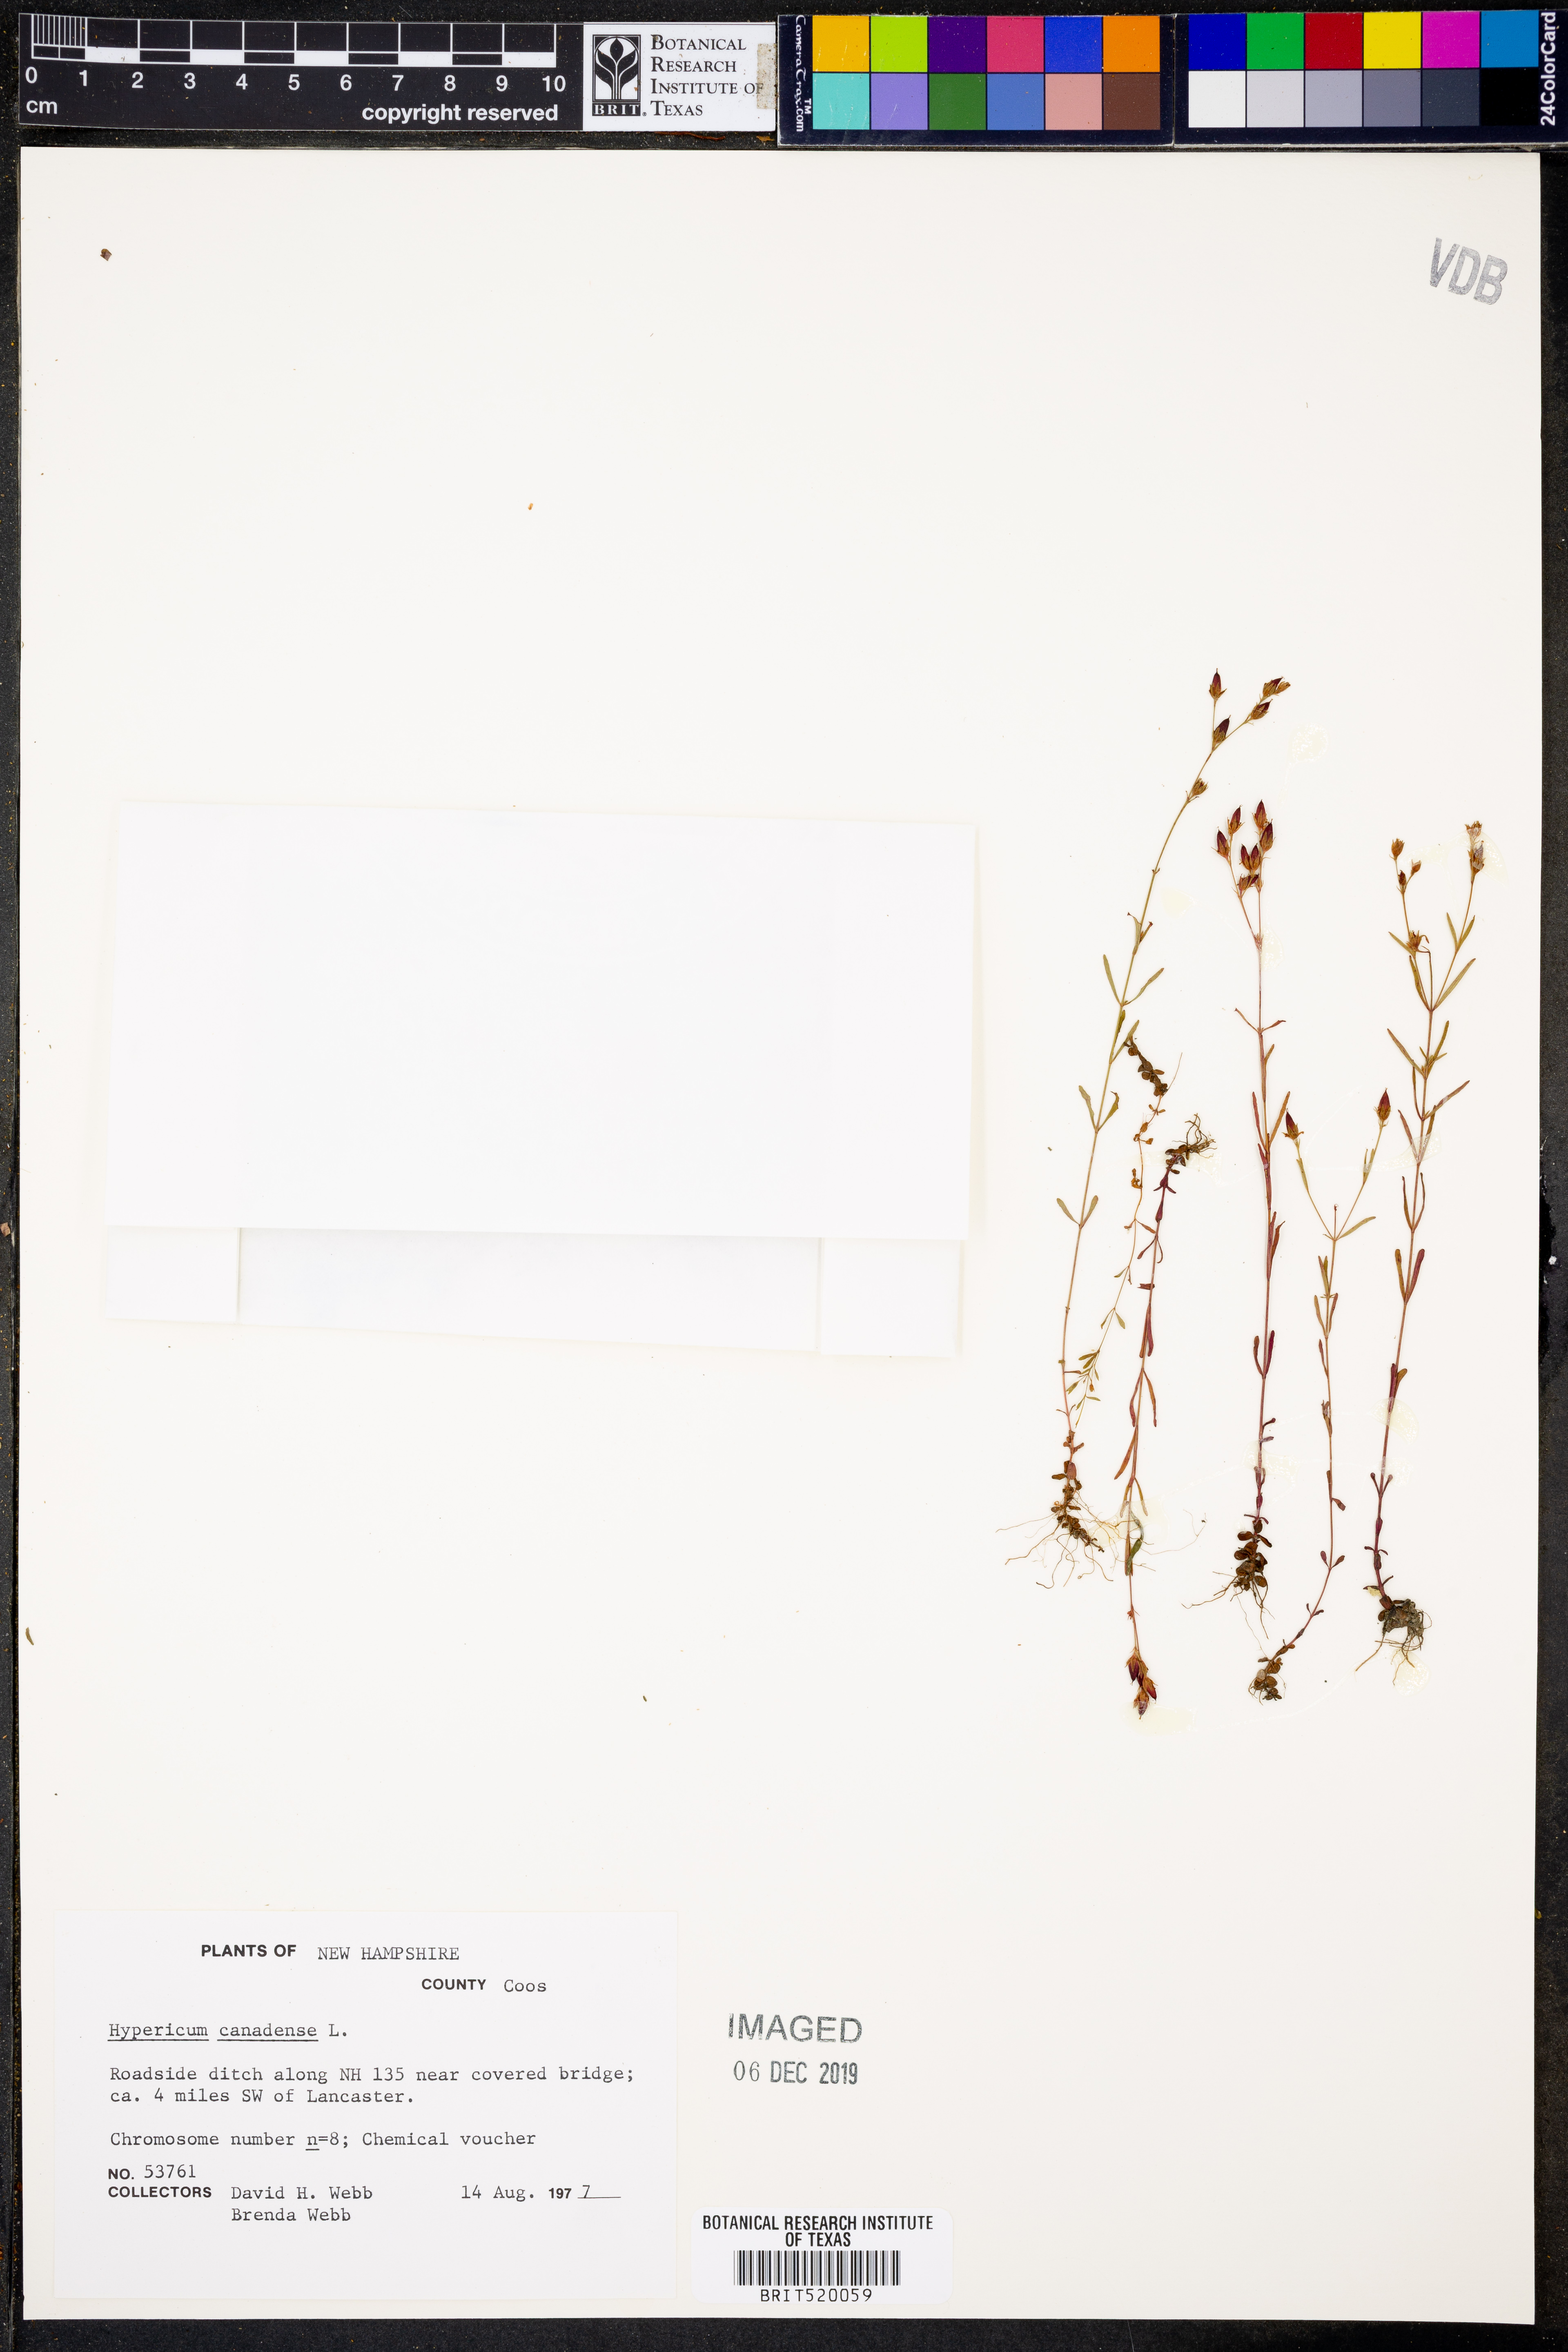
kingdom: Plantae
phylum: Tracheophyta
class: Magnoliopsida
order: Malpighiales
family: Hypericaceae
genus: Hypericum
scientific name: Hypericum canadense
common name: Irish st. john's-wort
